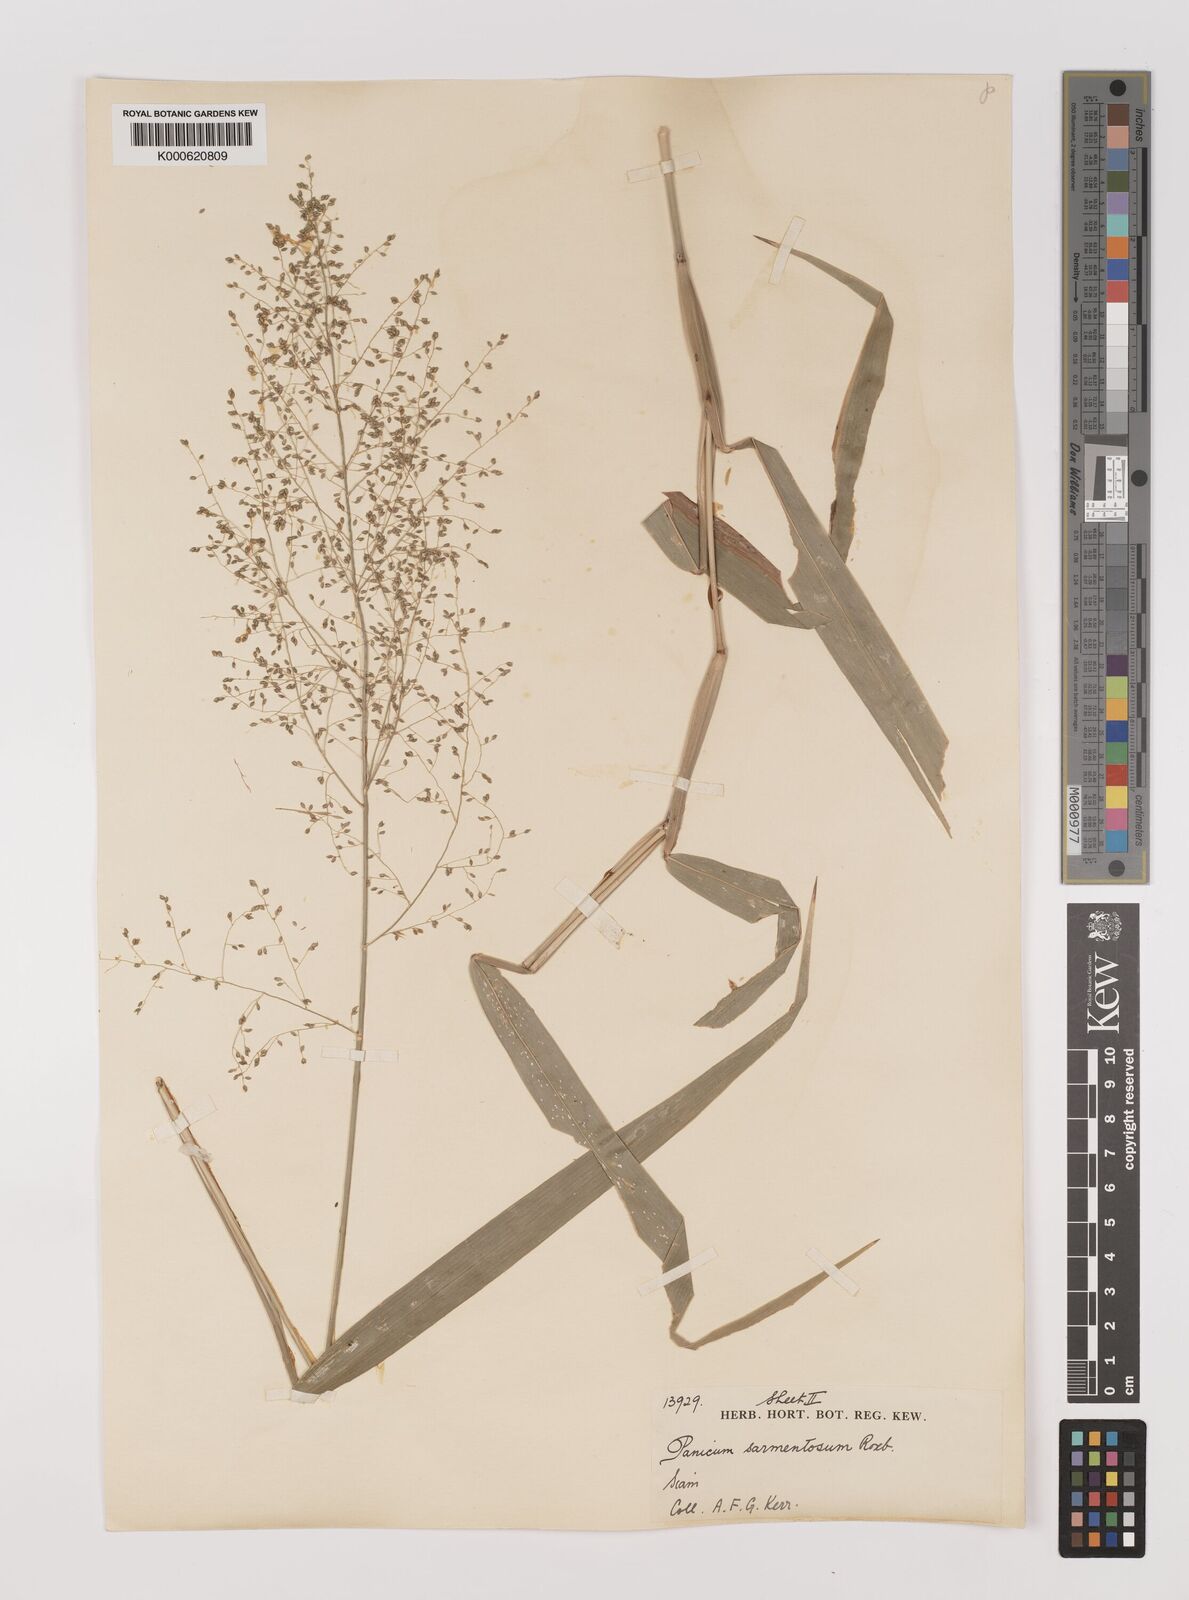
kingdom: Plantae
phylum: Tracheophyta
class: Liliopsida
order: Poales
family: Poaceae
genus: Panicum
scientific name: Panicum sarmentosum
